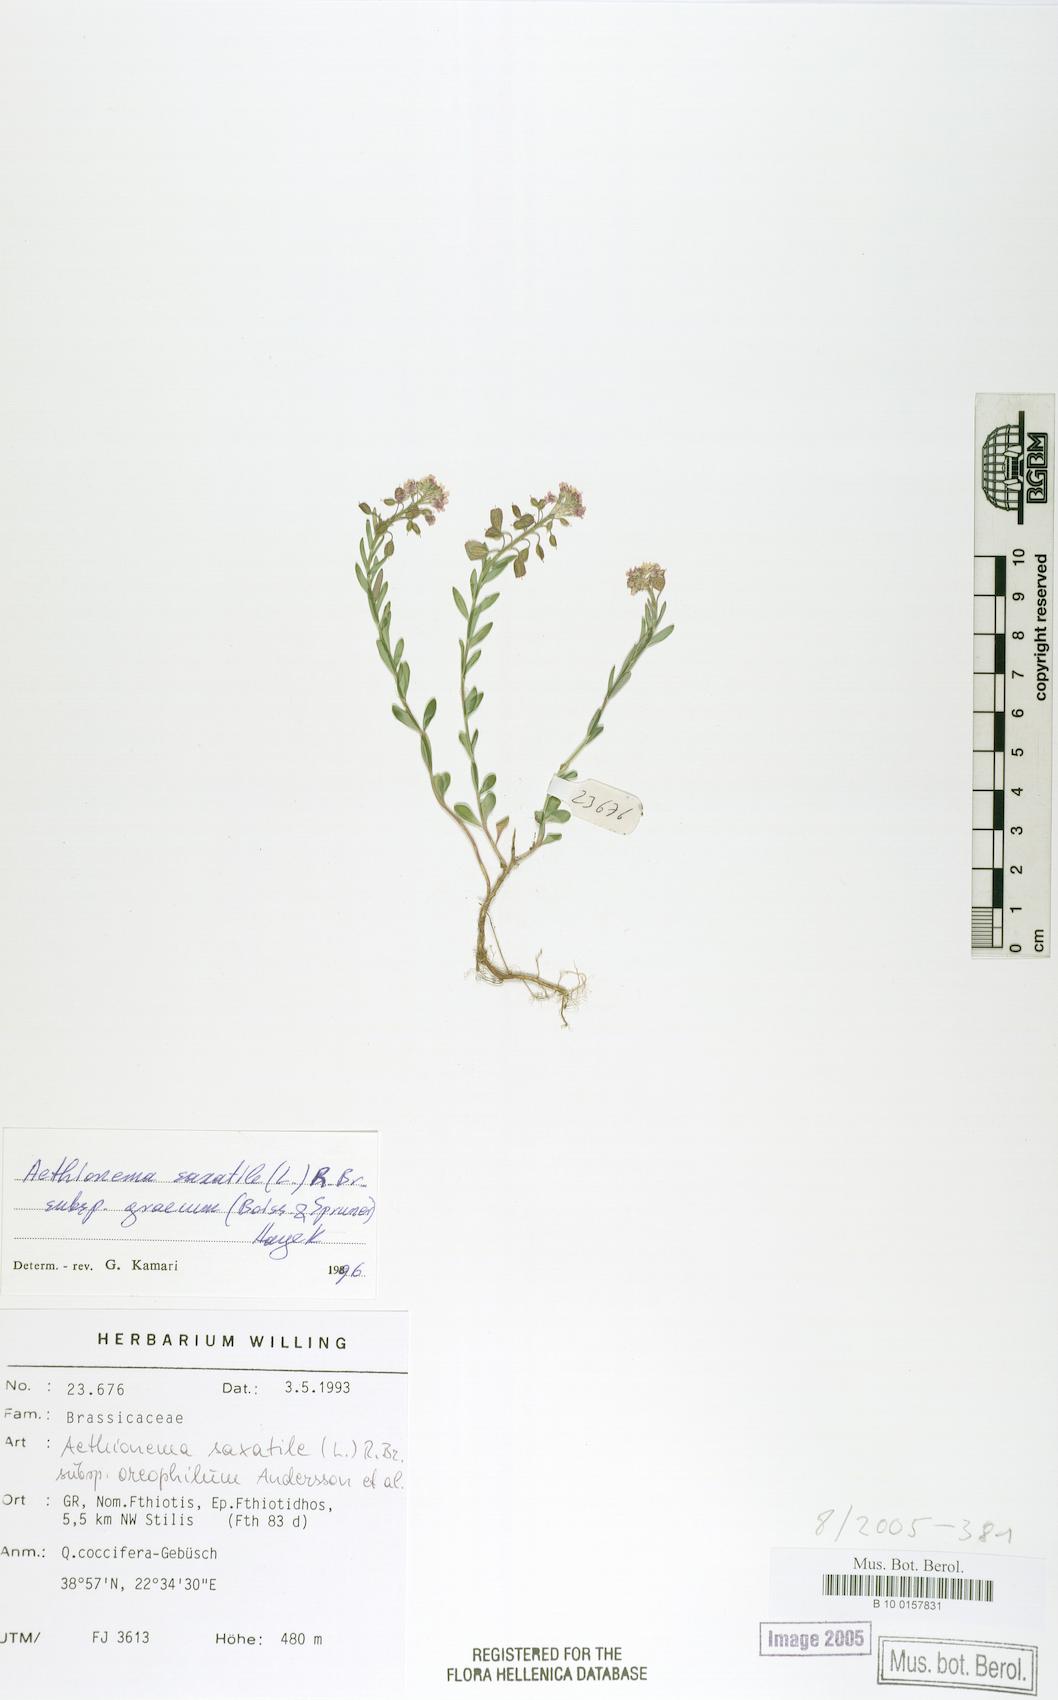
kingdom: Plantae
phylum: Tracheophyta
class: Magnoliopsida
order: Brassicales
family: Brassicaceae
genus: Aethionema
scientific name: Aethionema saxatile
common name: Burnt candytuft
